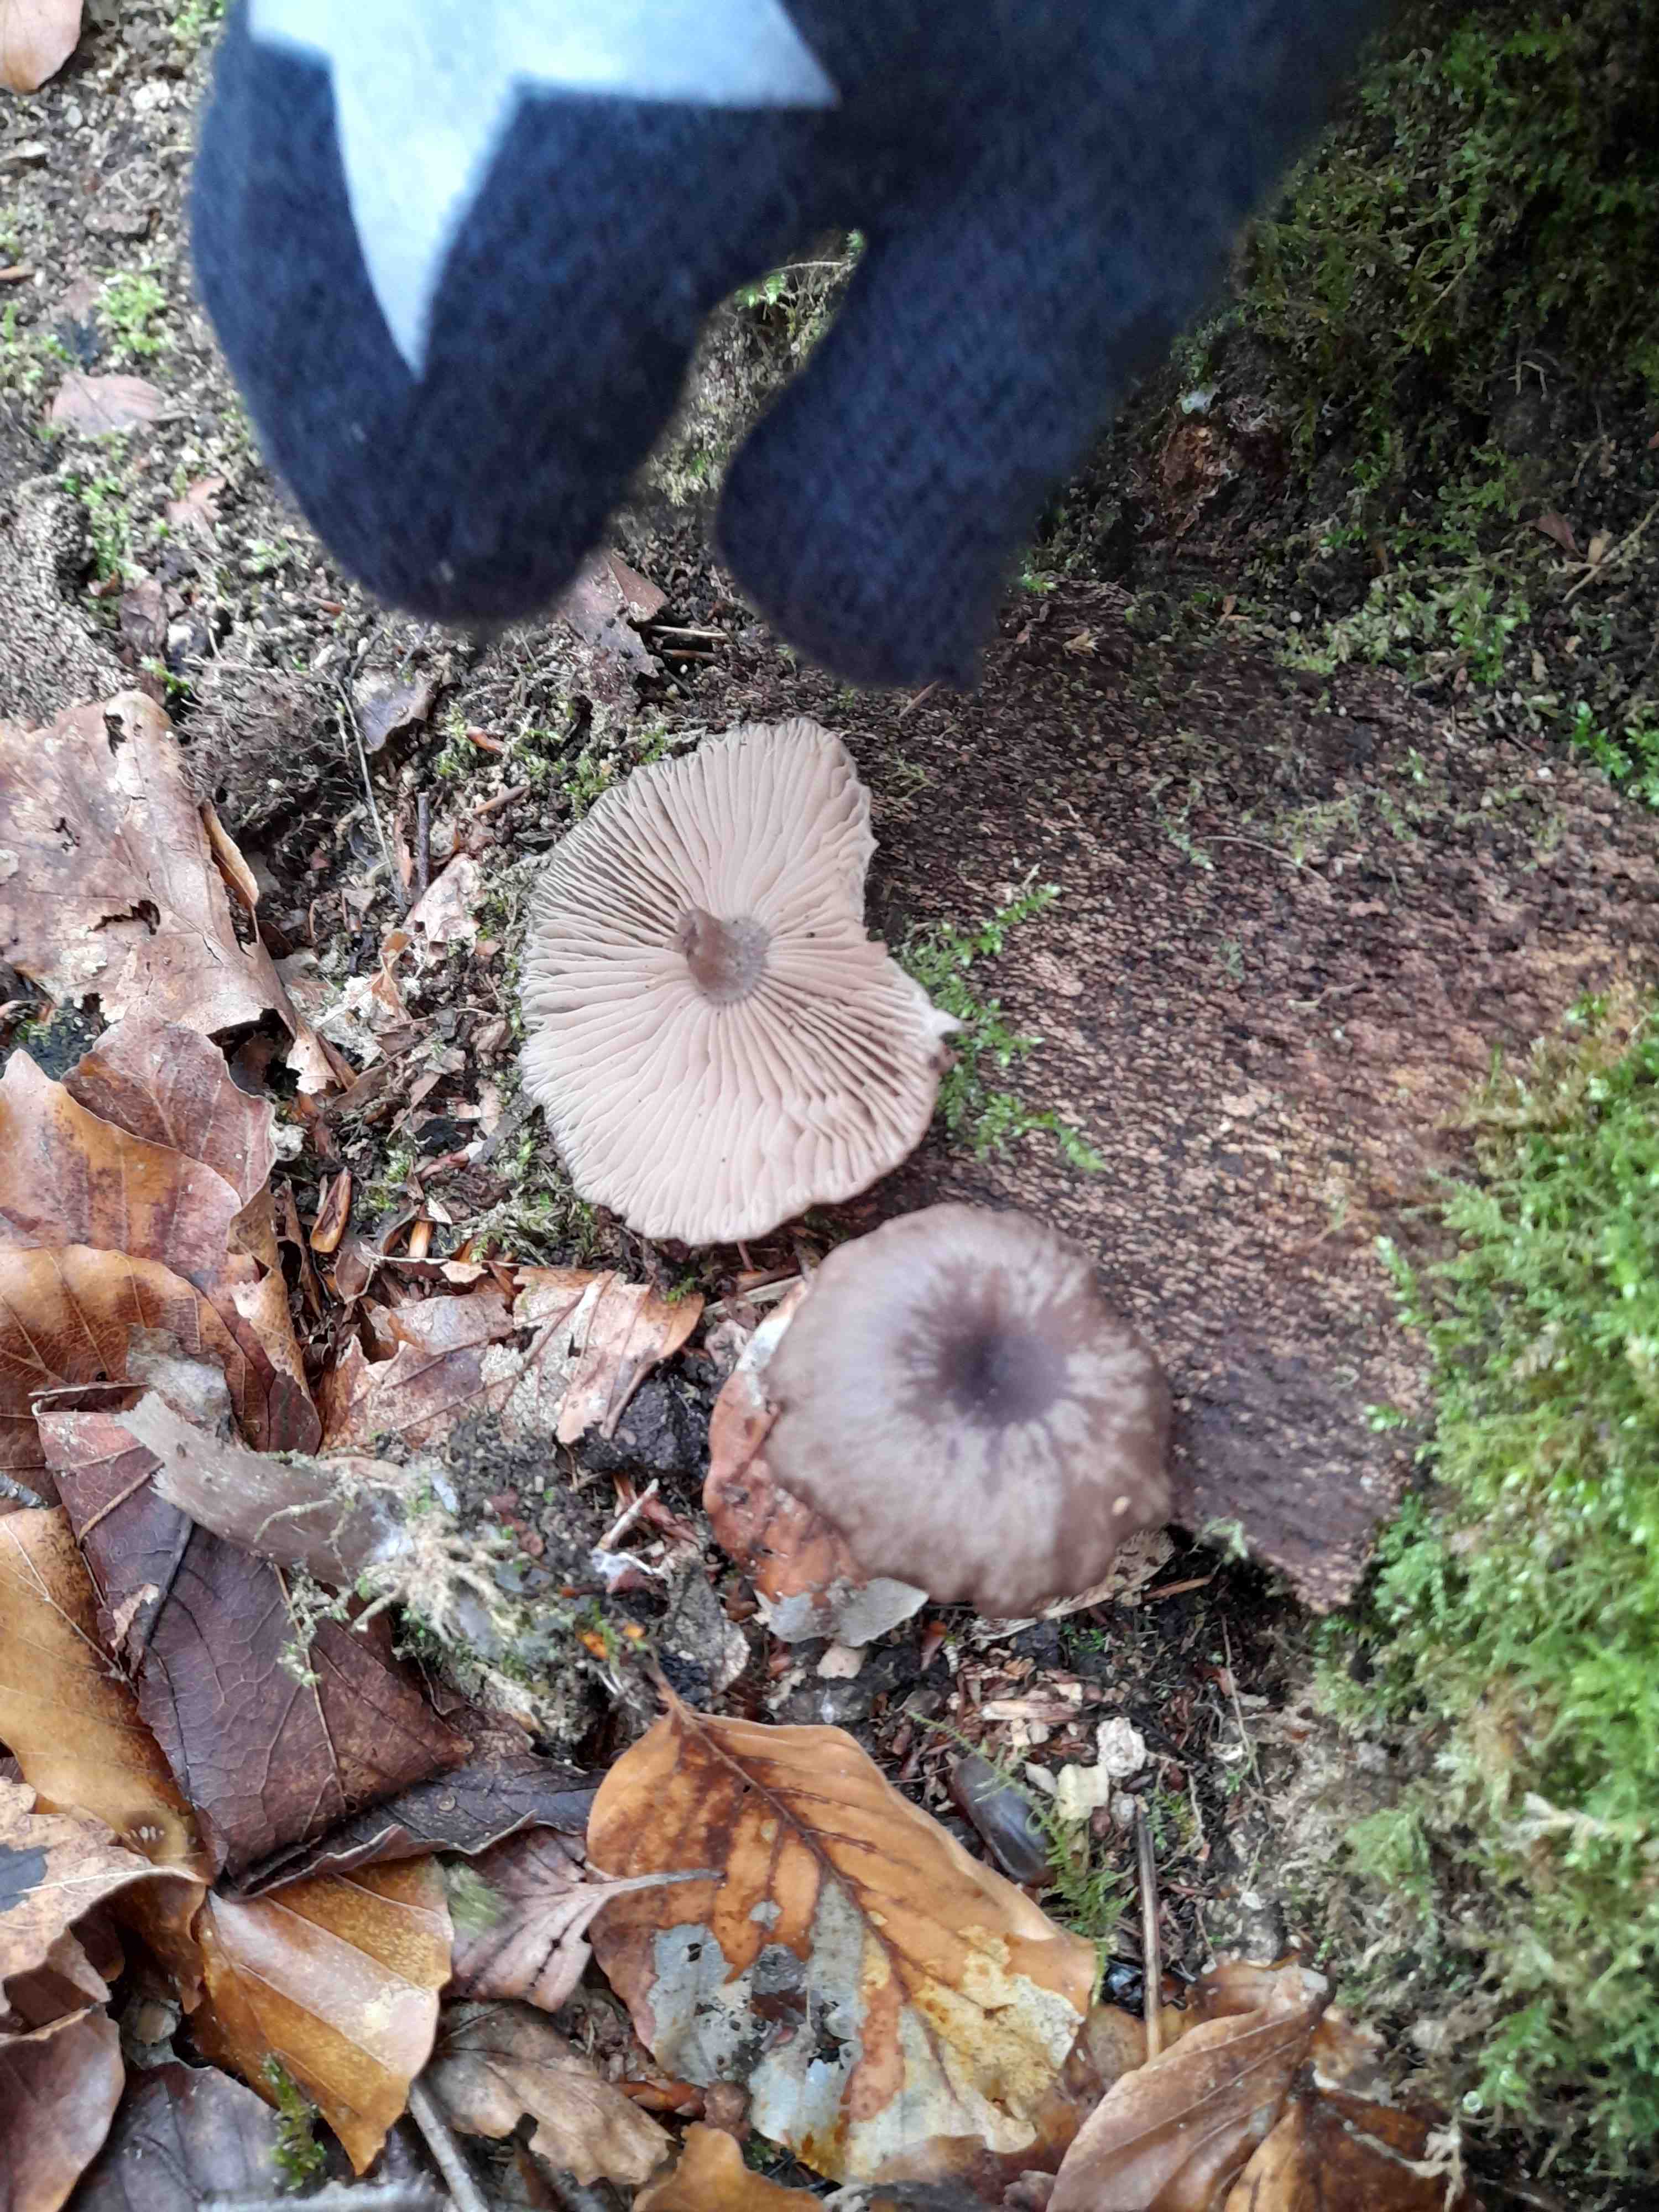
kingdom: Fungi
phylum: Basidiomycota
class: Agaricomycetes
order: Agaricales
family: Pseudoclitocybaceae
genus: Pseudoclitocybe
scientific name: Pseudoclitocybe cyathiformis
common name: almindelig bægertragthat
